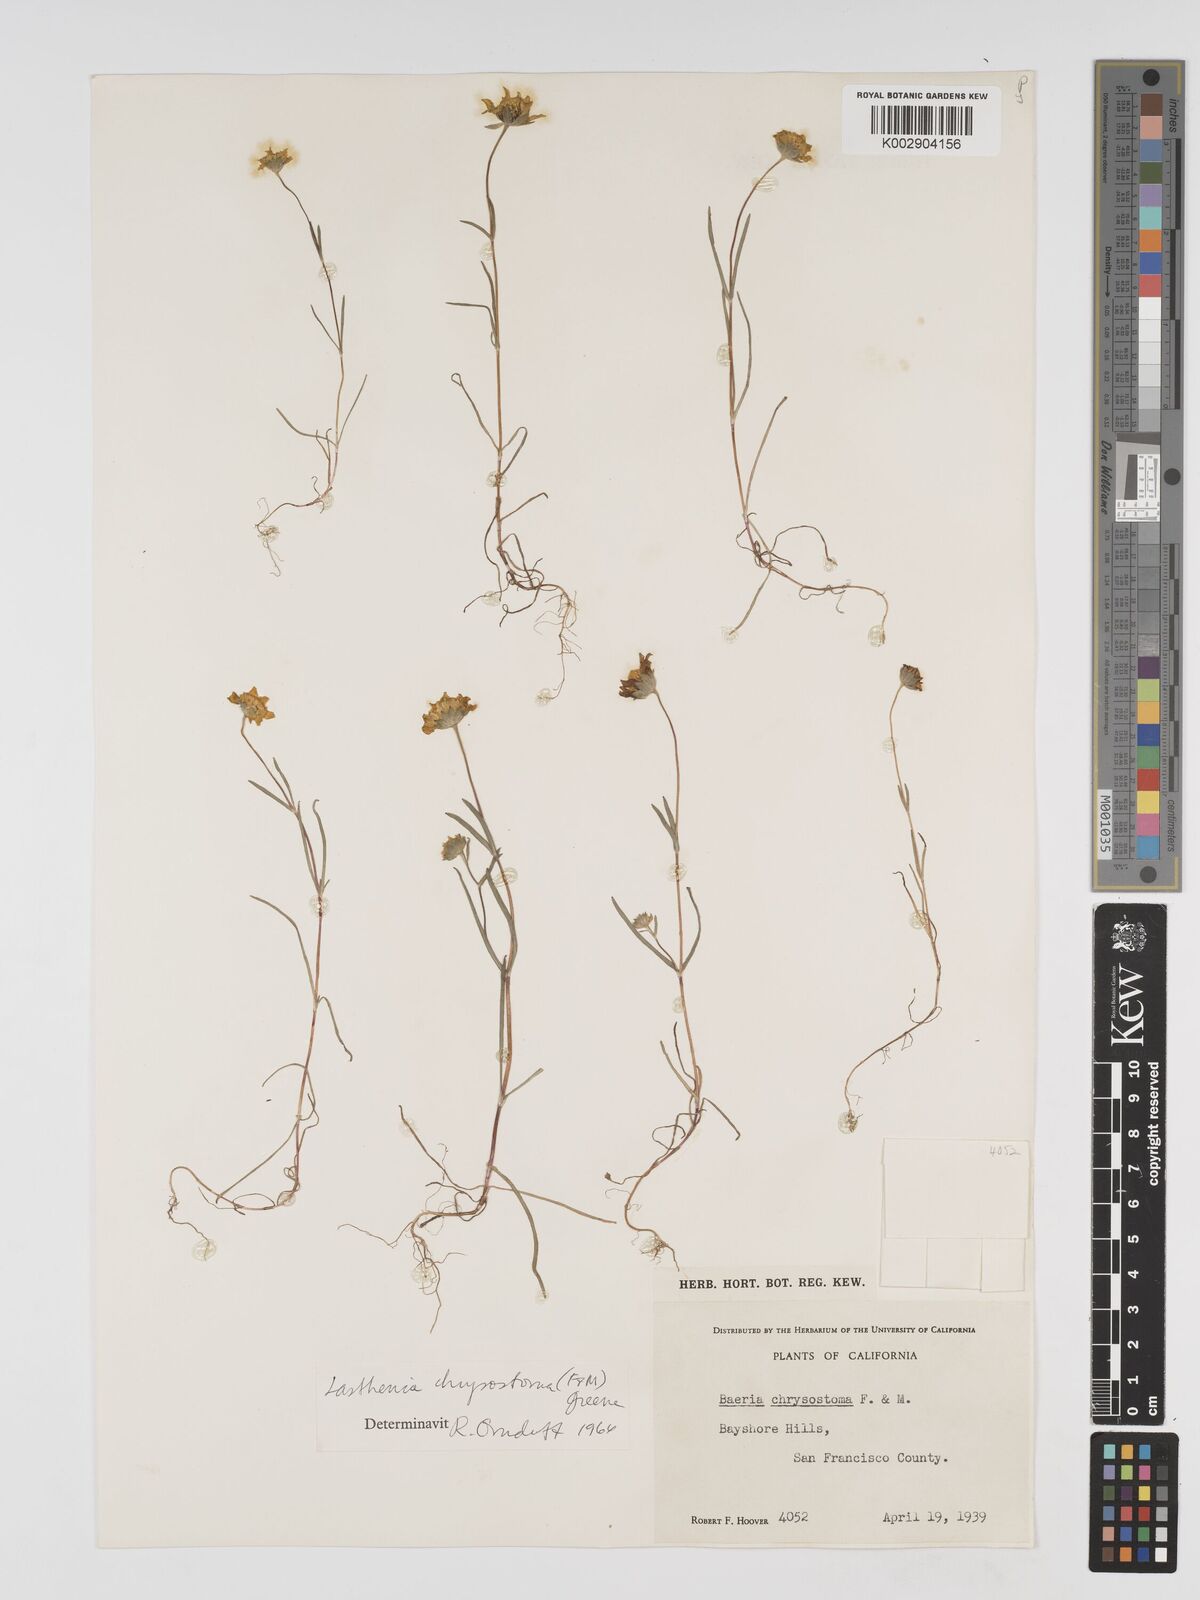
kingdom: Plantae
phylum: Tracheophyta
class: Magnoliopsida
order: Asterales
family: Asteraceae
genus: Lasthenia
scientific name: Lasthenia californica
